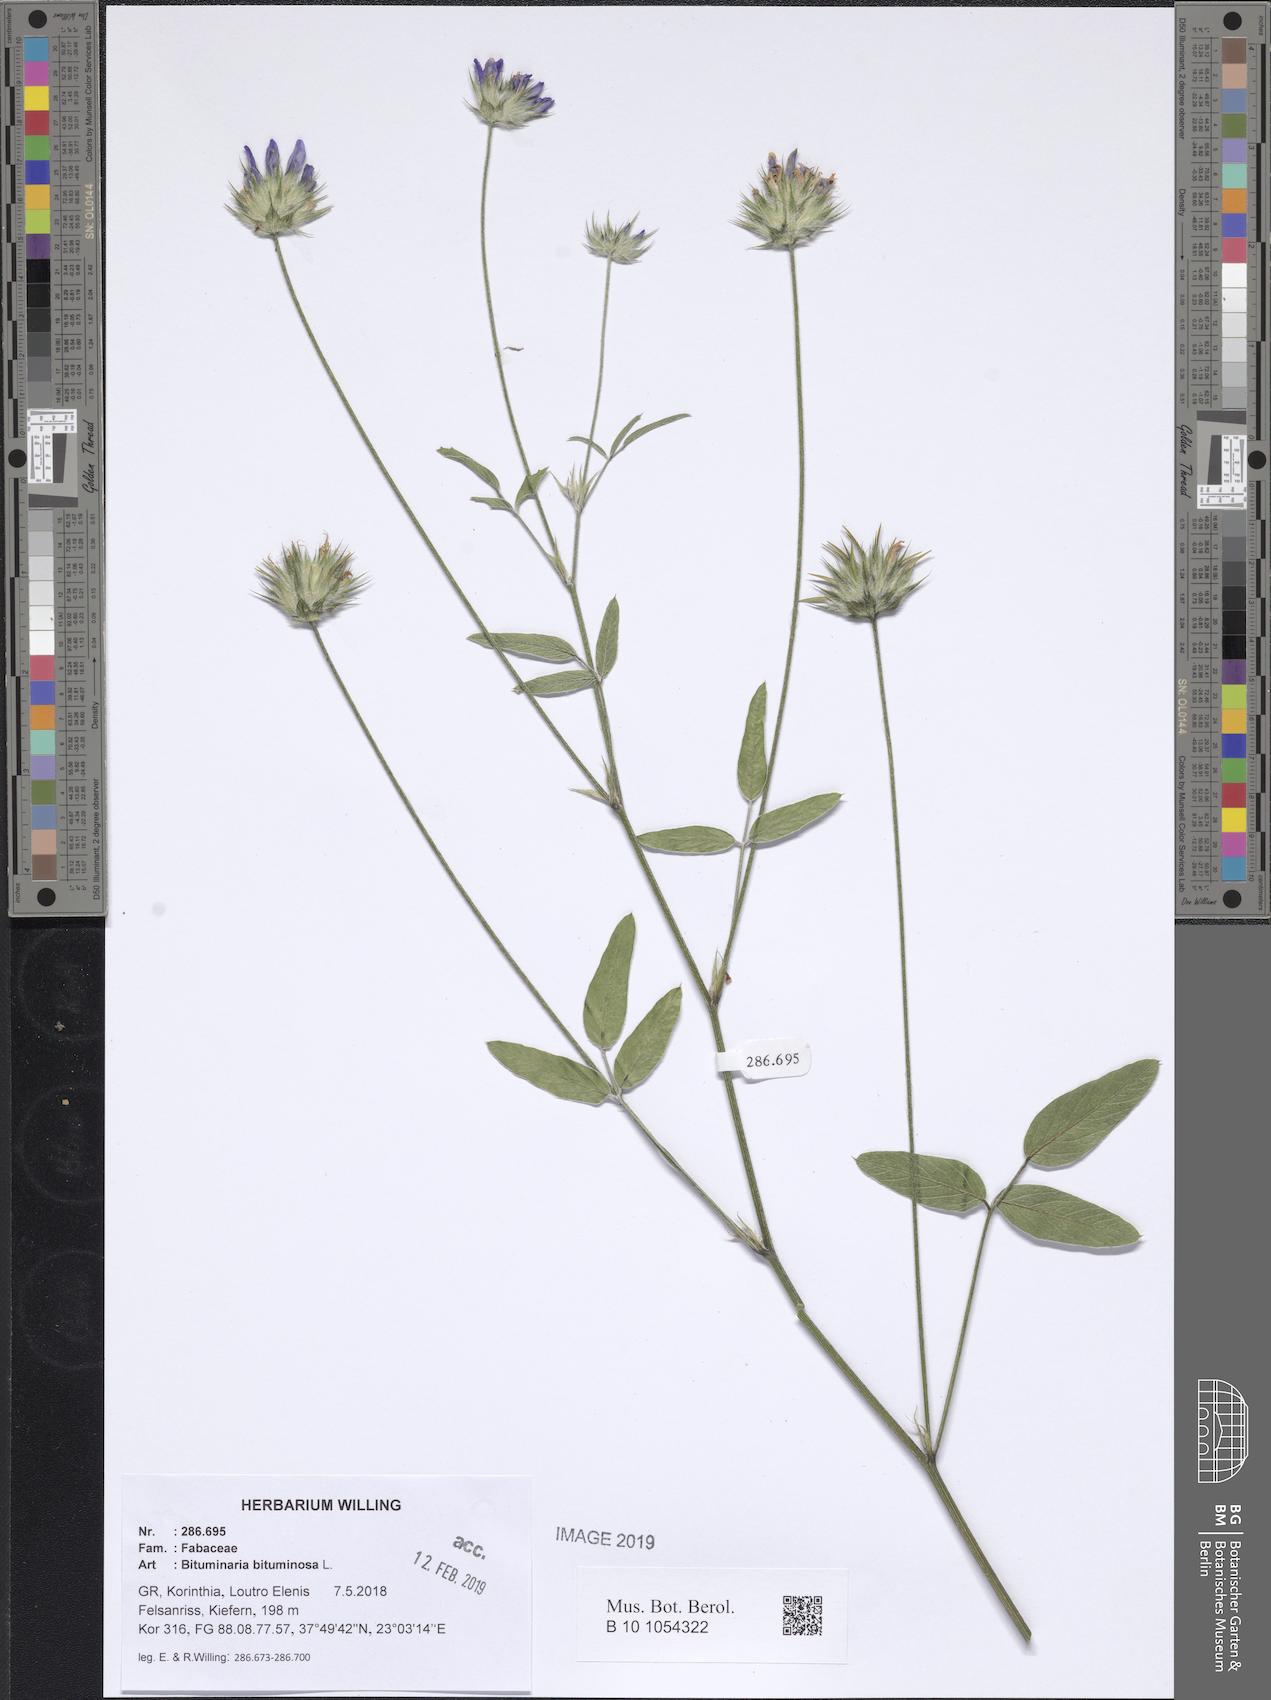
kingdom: Plantae
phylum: Tracheophyta
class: Magnoliopsida
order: Fabales
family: Fabaceae
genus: Bituminaria
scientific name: Bituminaria bituminosa
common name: Arabian pea
